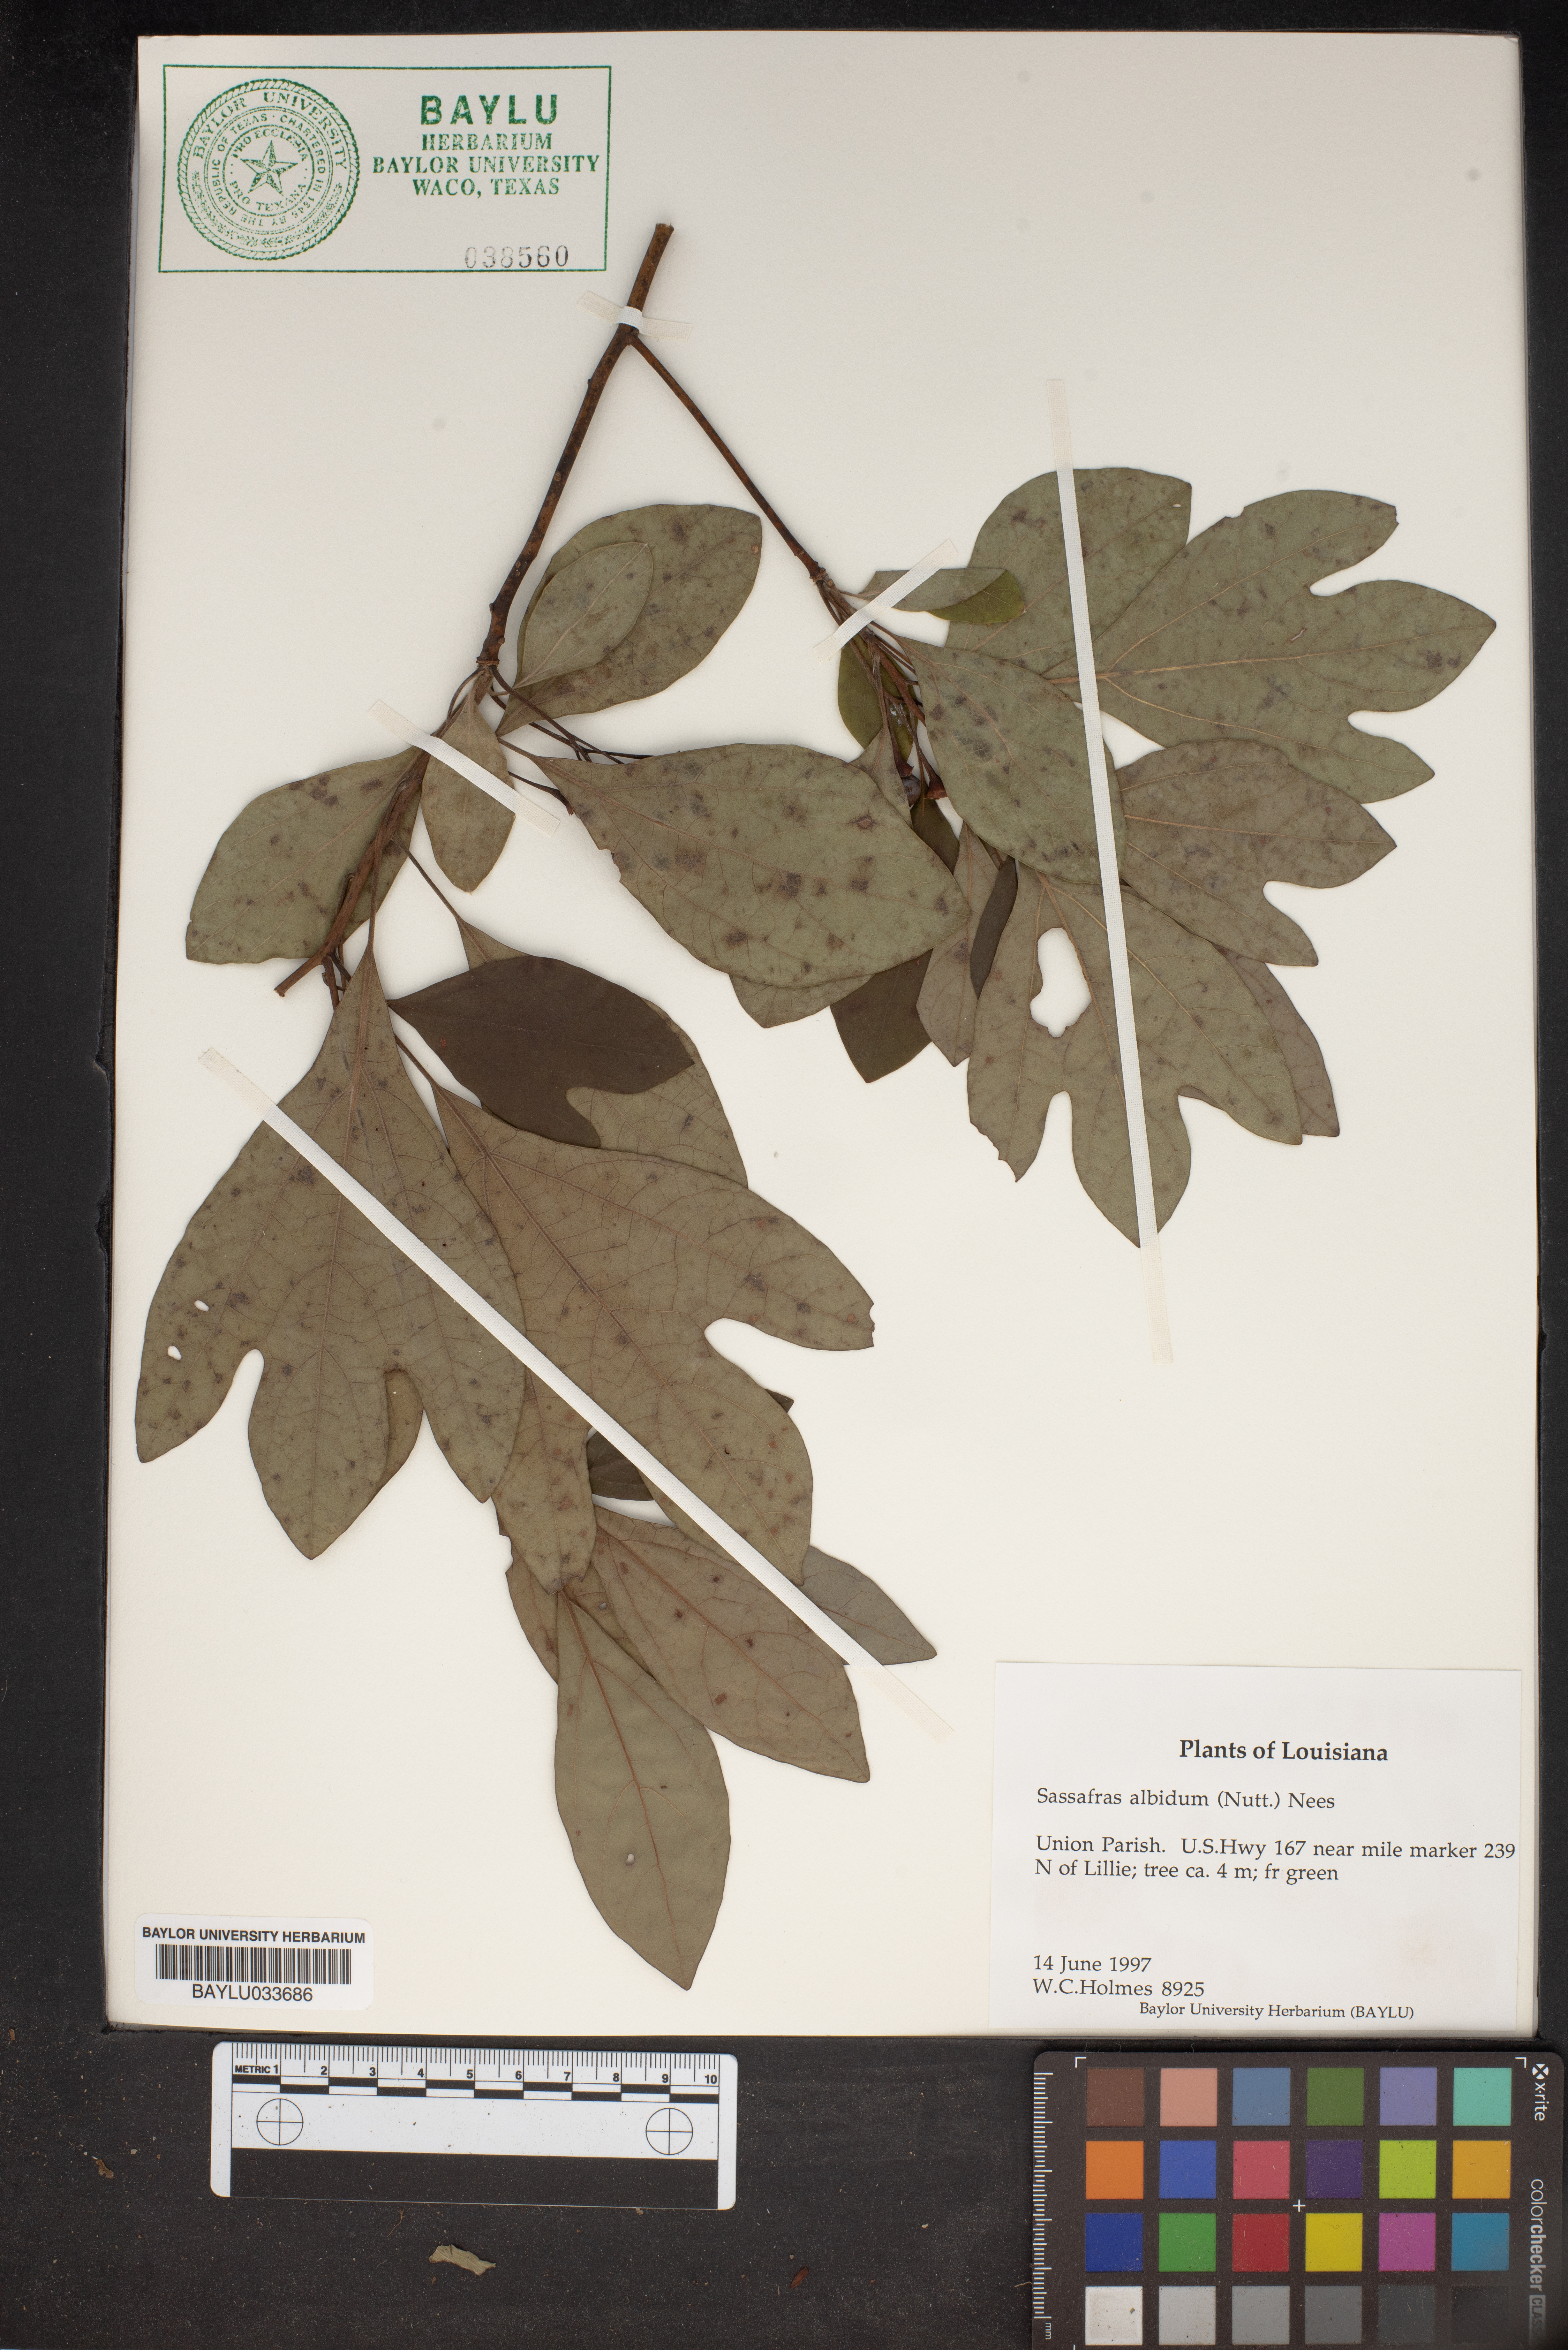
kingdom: Plantae
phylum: Tracheophyta
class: Magnoliopsida
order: Laurales
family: Lauraceae
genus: Sassafras
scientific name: Sassafras albidum
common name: Sassafras
